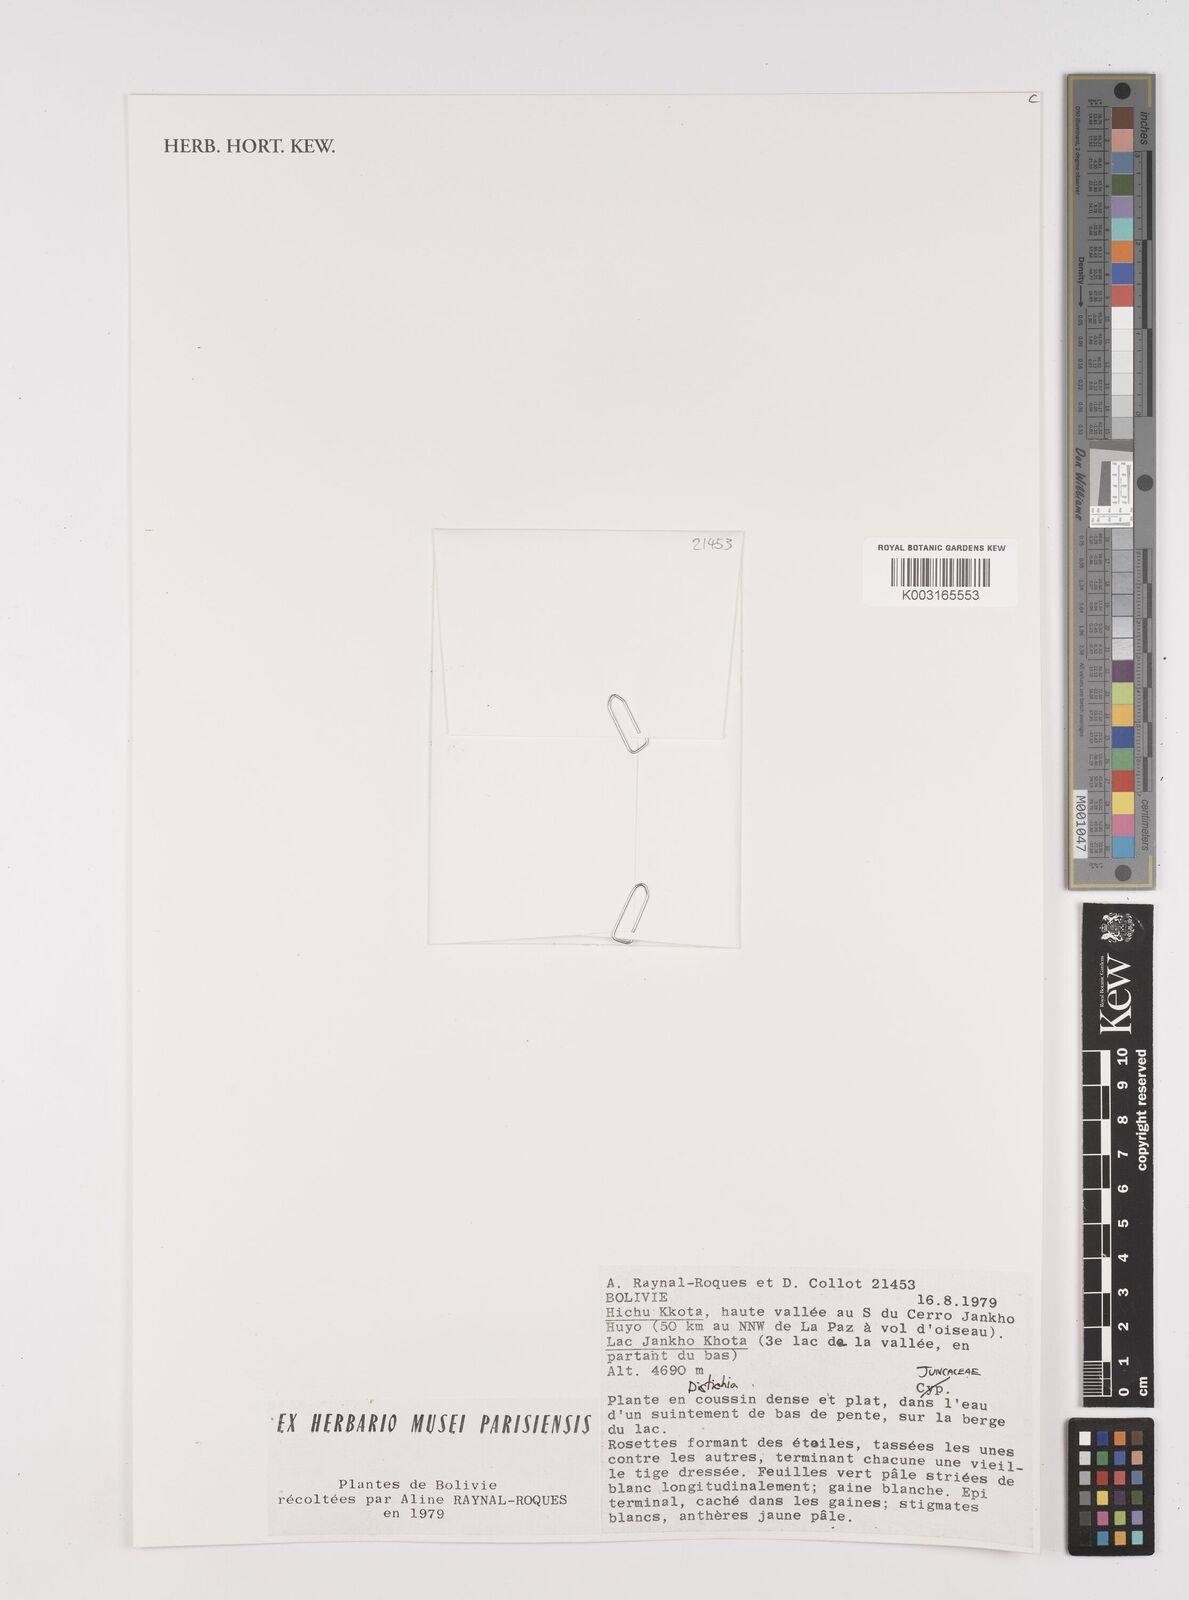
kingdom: Plantae
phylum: Tracheophyta
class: Liliopsida
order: Poales
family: Juncaceae
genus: Distichia
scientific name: Distichia muscoides
